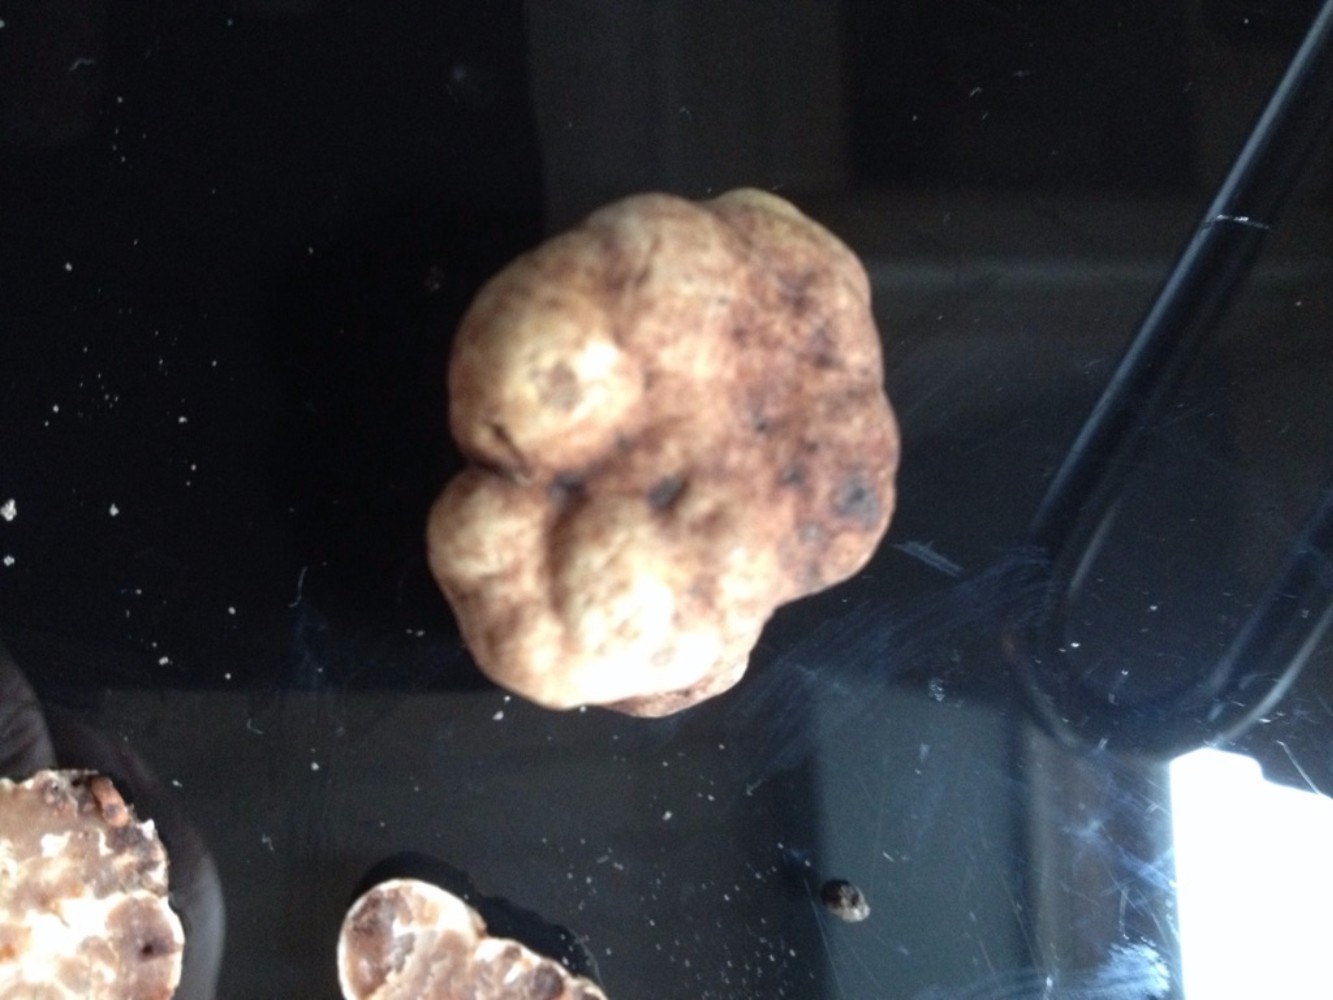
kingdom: Fungi
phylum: Ascomycota
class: Pezizomycetes
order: Pezizales
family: Tuberaceae
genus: Tuber
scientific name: Tuber
